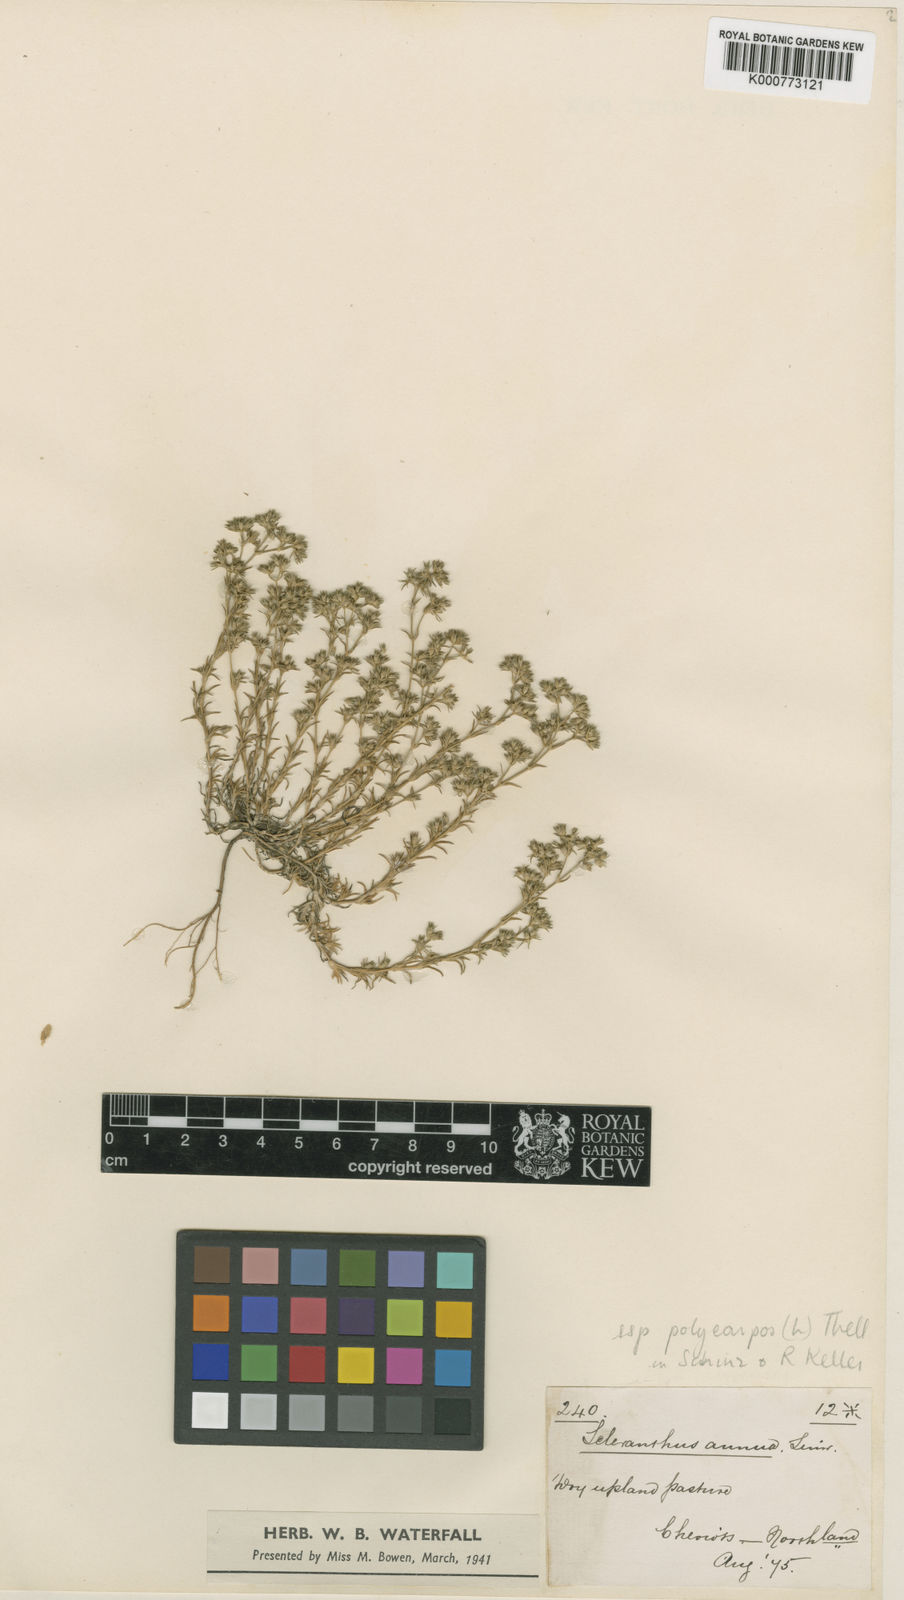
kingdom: Plantae
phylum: Tracheophyta
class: Magnoliopsida
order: Caryophyllales
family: Caryophyllaceae
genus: Scleranthus
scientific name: Scleranthus annuus
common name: Annual knawel
